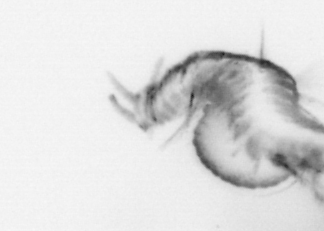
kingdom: Animalia
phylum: Annelida
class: Polychaeta
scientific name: Polychaeta
